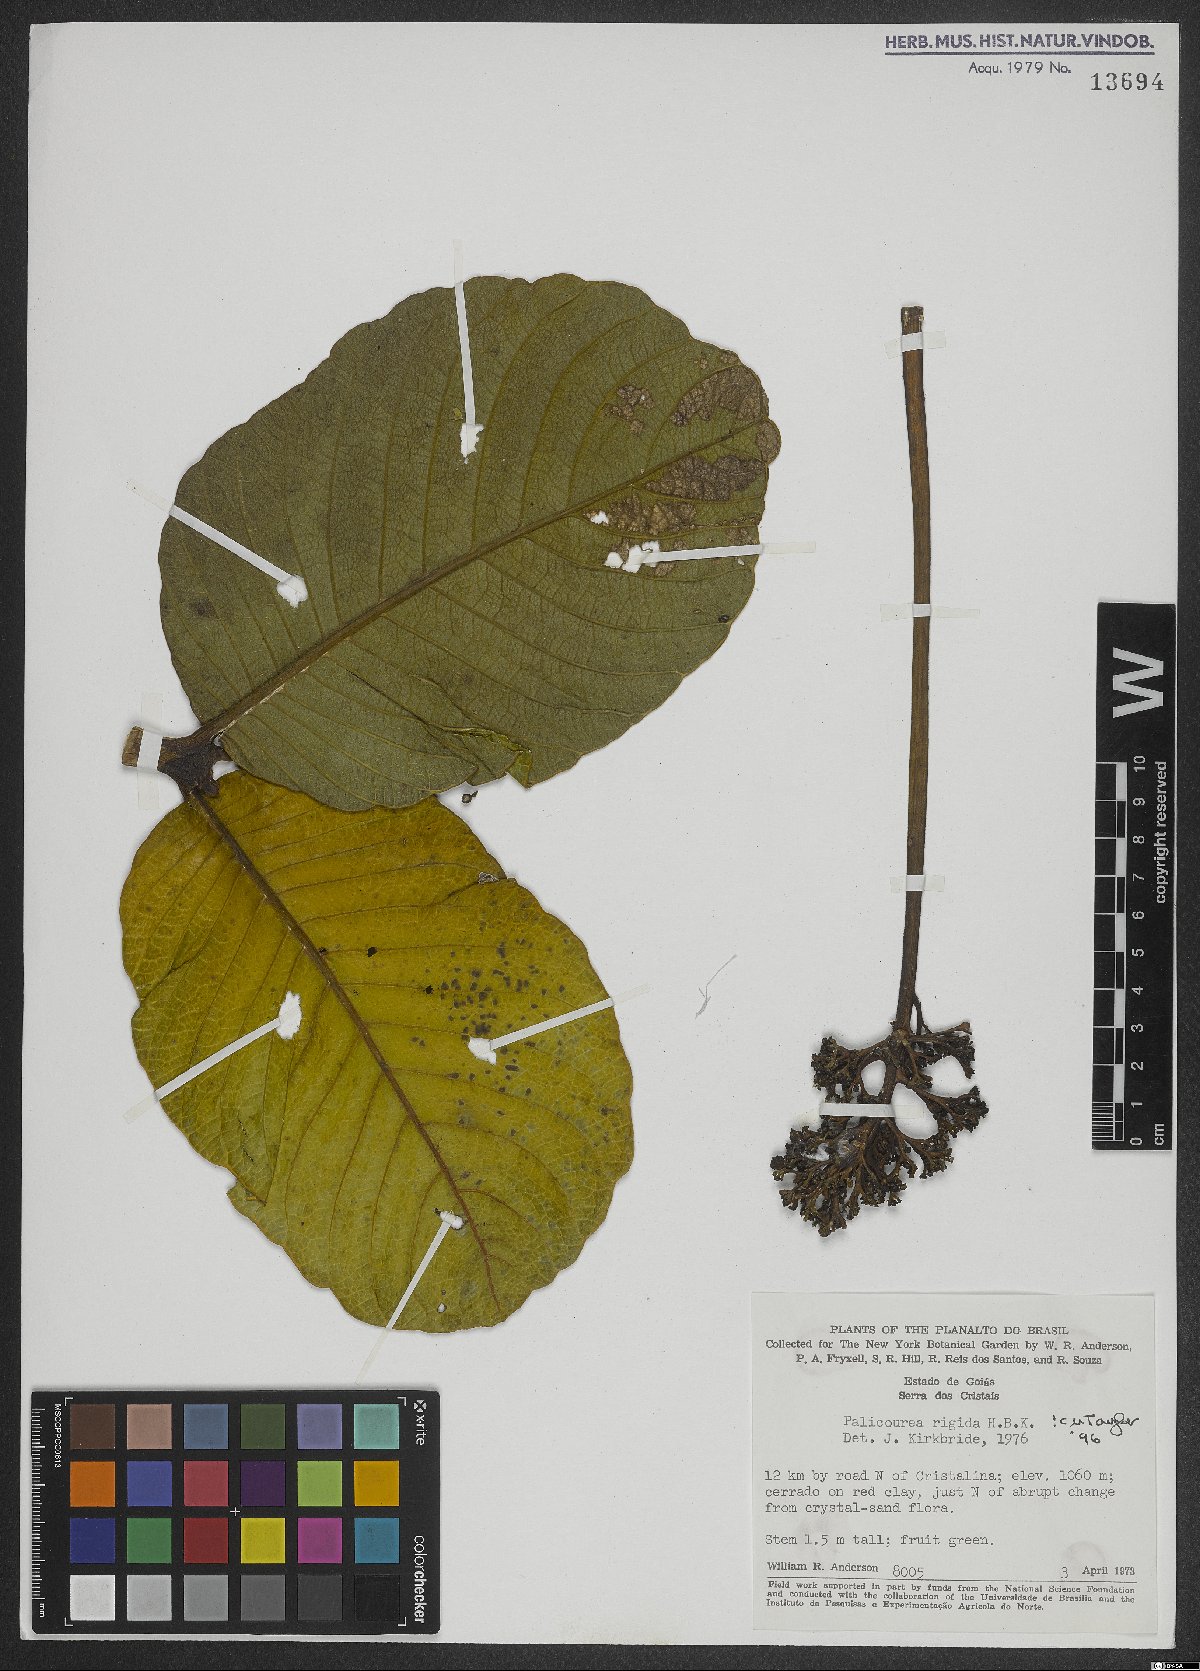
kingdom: Plantae
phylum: Tracheophyta
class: Magnoliopsida
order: Gentianales
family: Rubiaceae
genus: Palicourea
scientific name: Palicourea rigida
